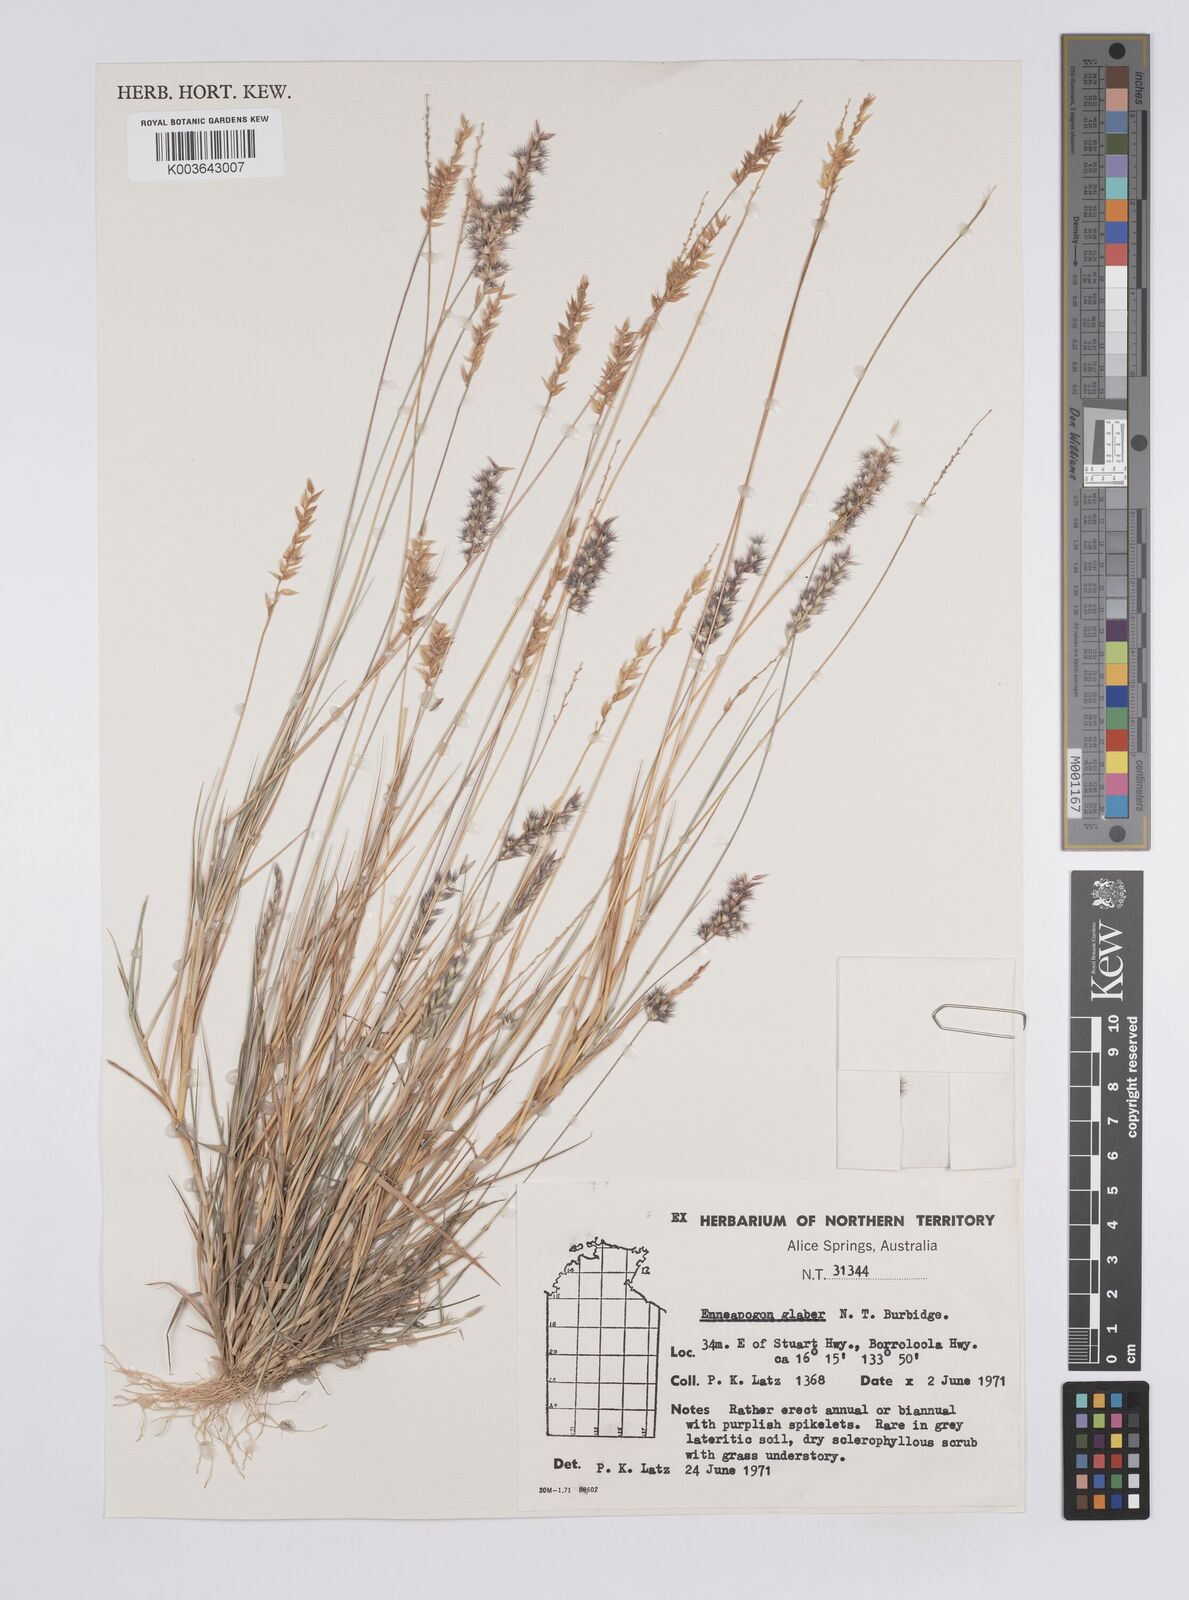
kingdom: Plantae
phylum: Tracheophyta
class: Liliopsida
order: Poales
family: Poaceae
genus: Enneapogon
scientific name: Enneapogon purpurascens
